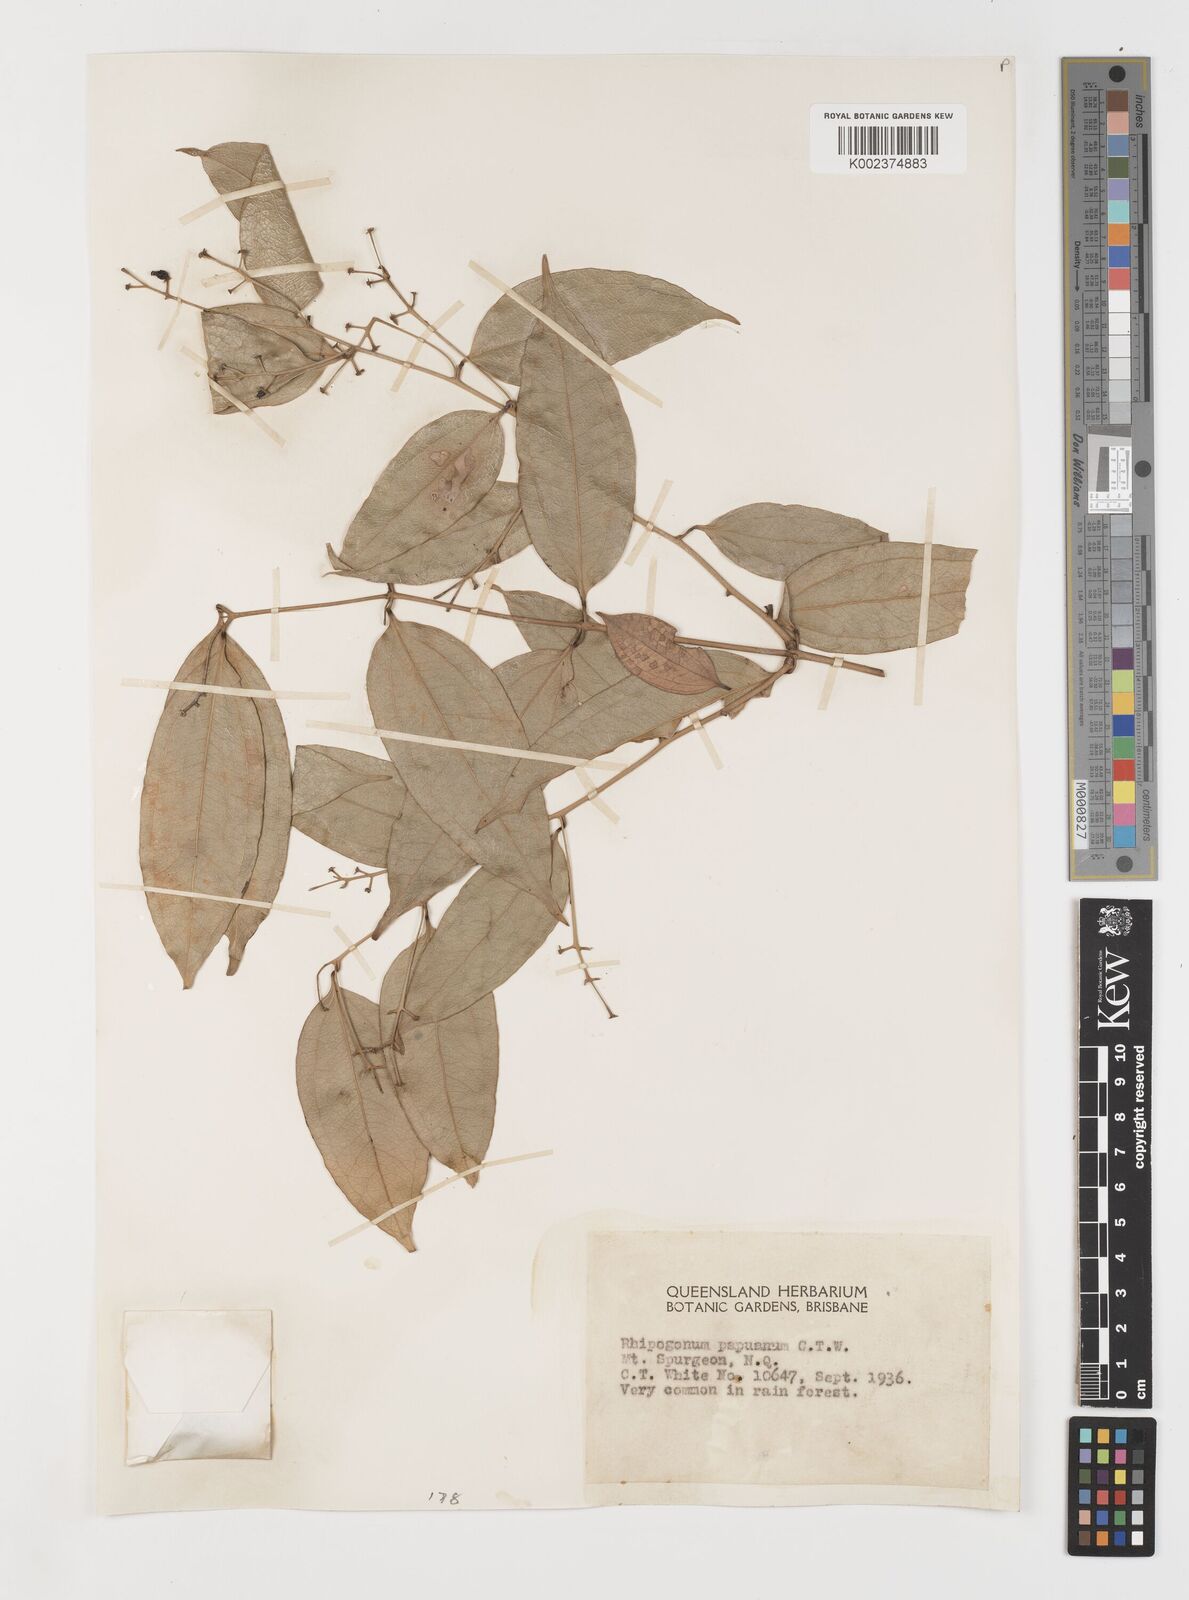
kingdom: Plantae
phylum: Tracheophyta
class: Liliopsida
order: Liliales
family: Ripogonaceae
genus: Ripogonum
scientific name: Ripogonum album
